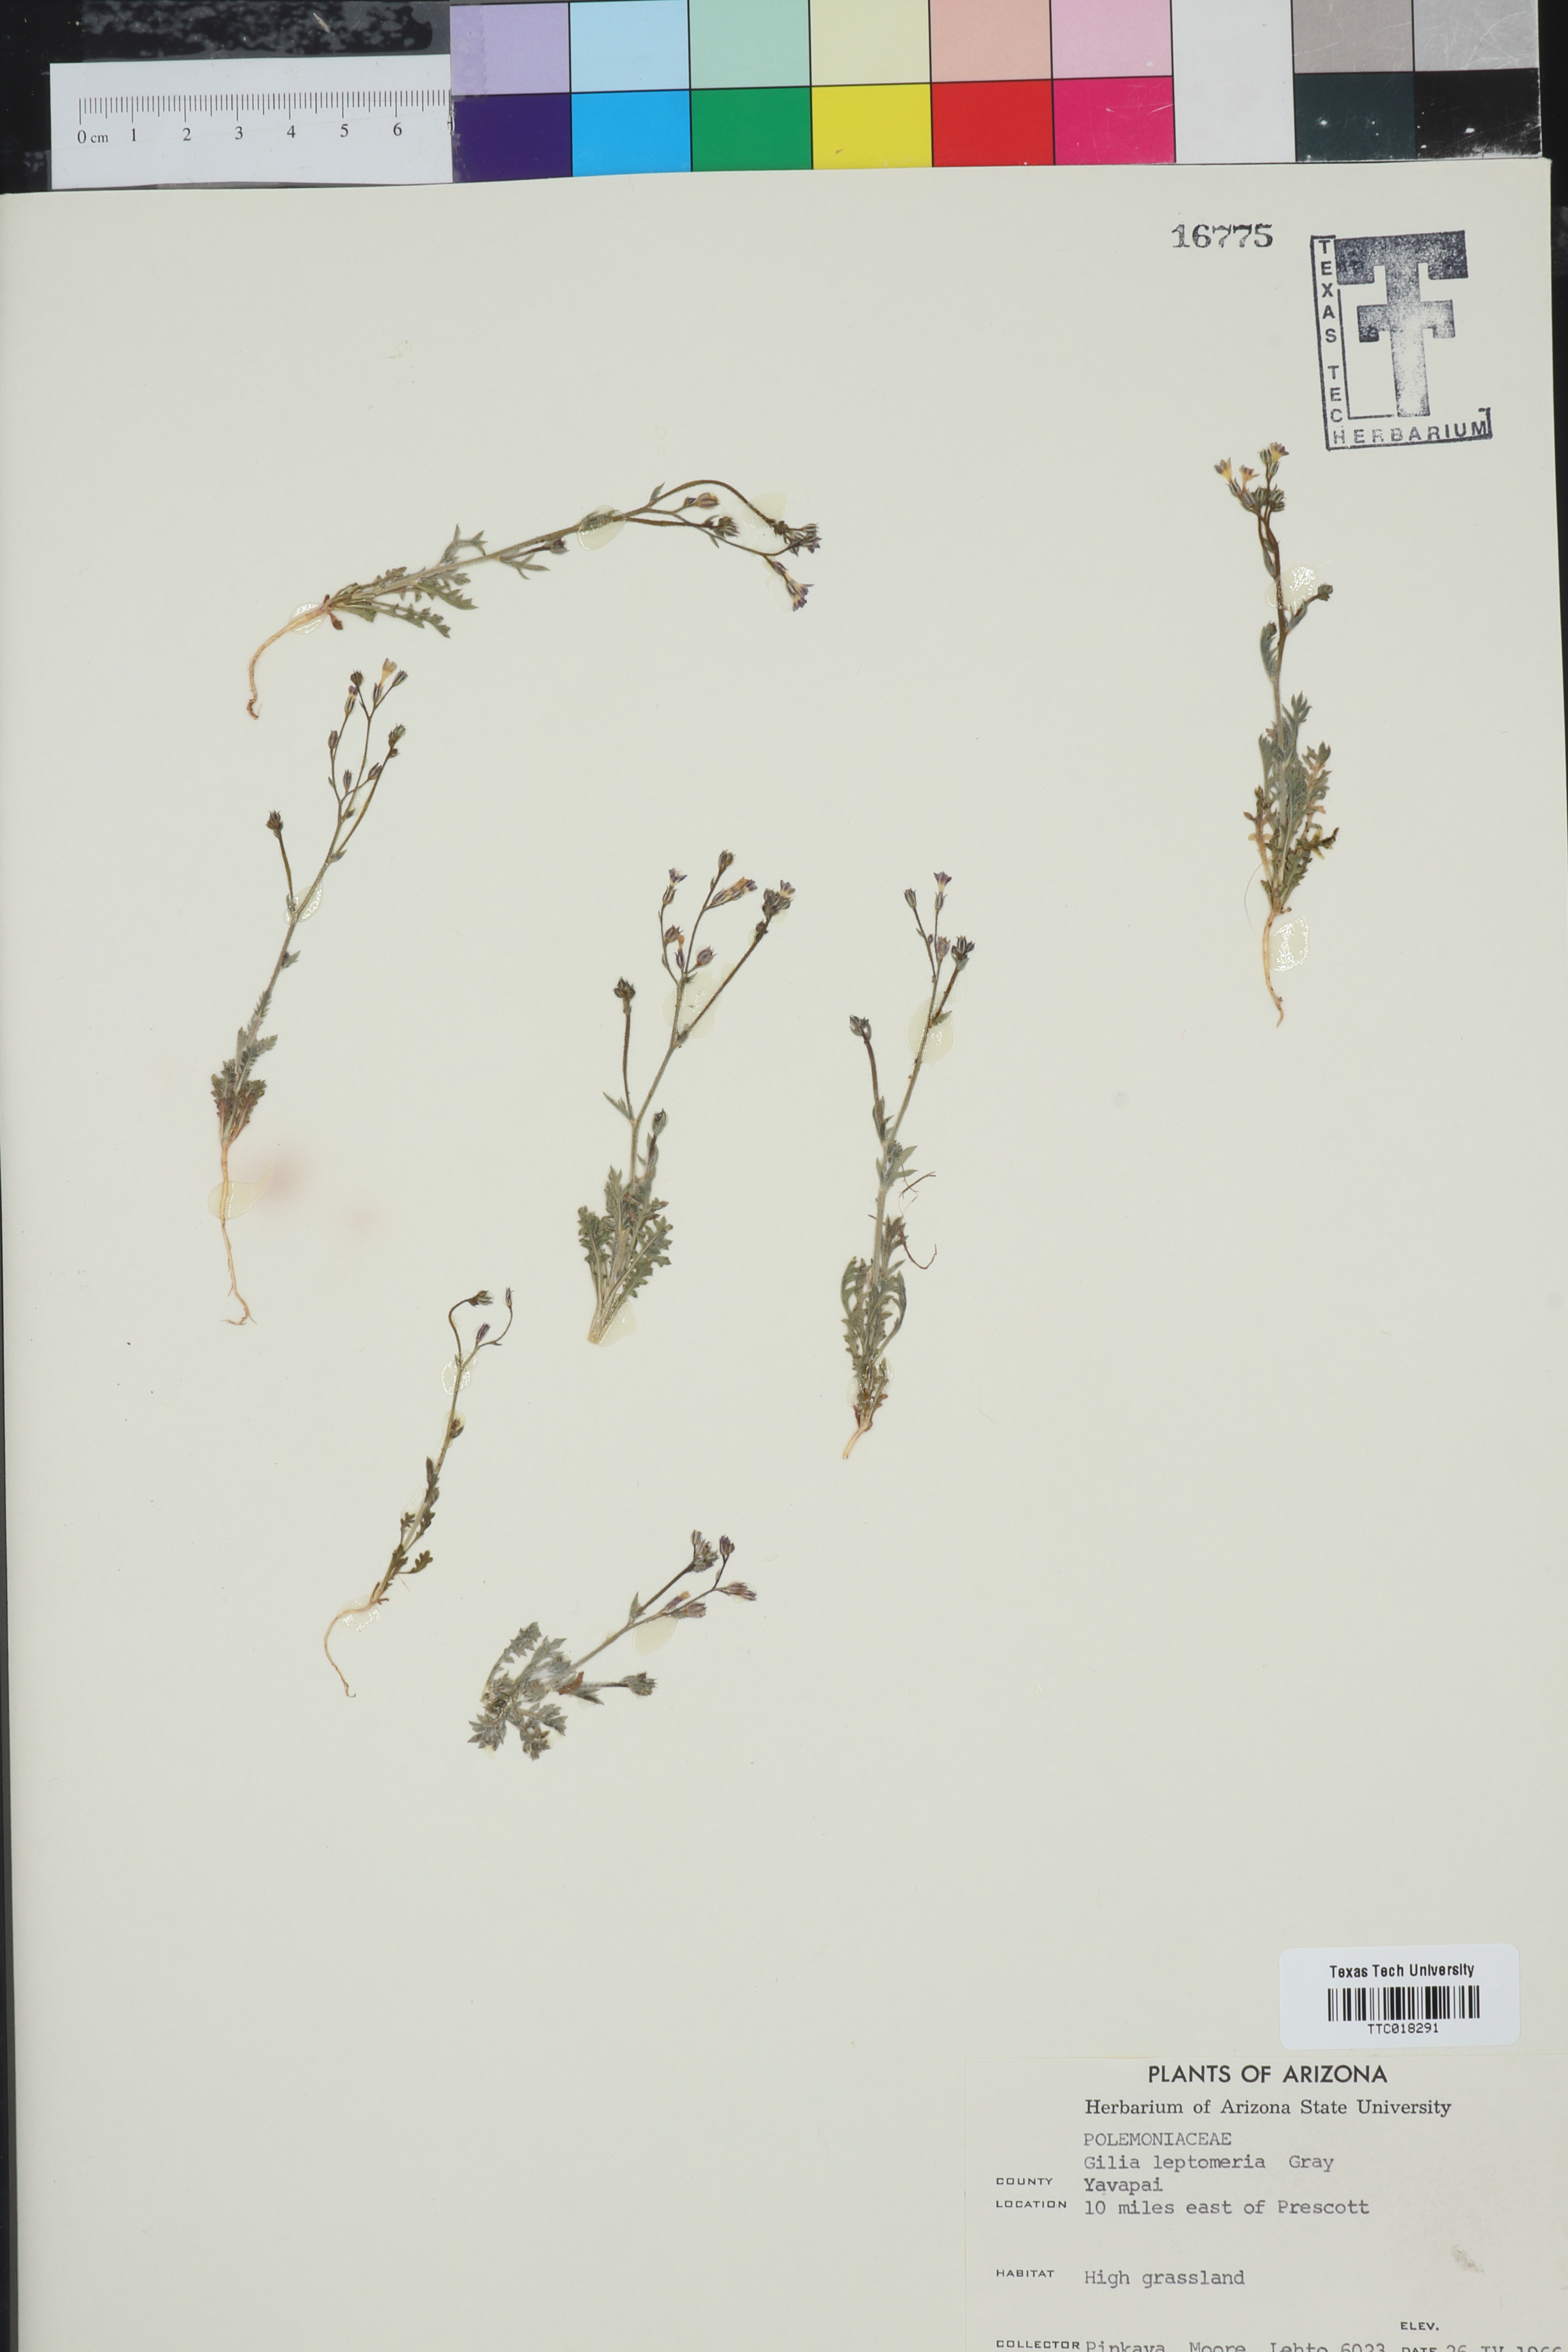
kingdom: Plantae
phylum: Tracheophyta
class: Magnoliopsida
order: Ericales
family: Polemoniaceae
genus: Aliciella
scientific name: Aliciella leptomeria
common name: Sand gilia
